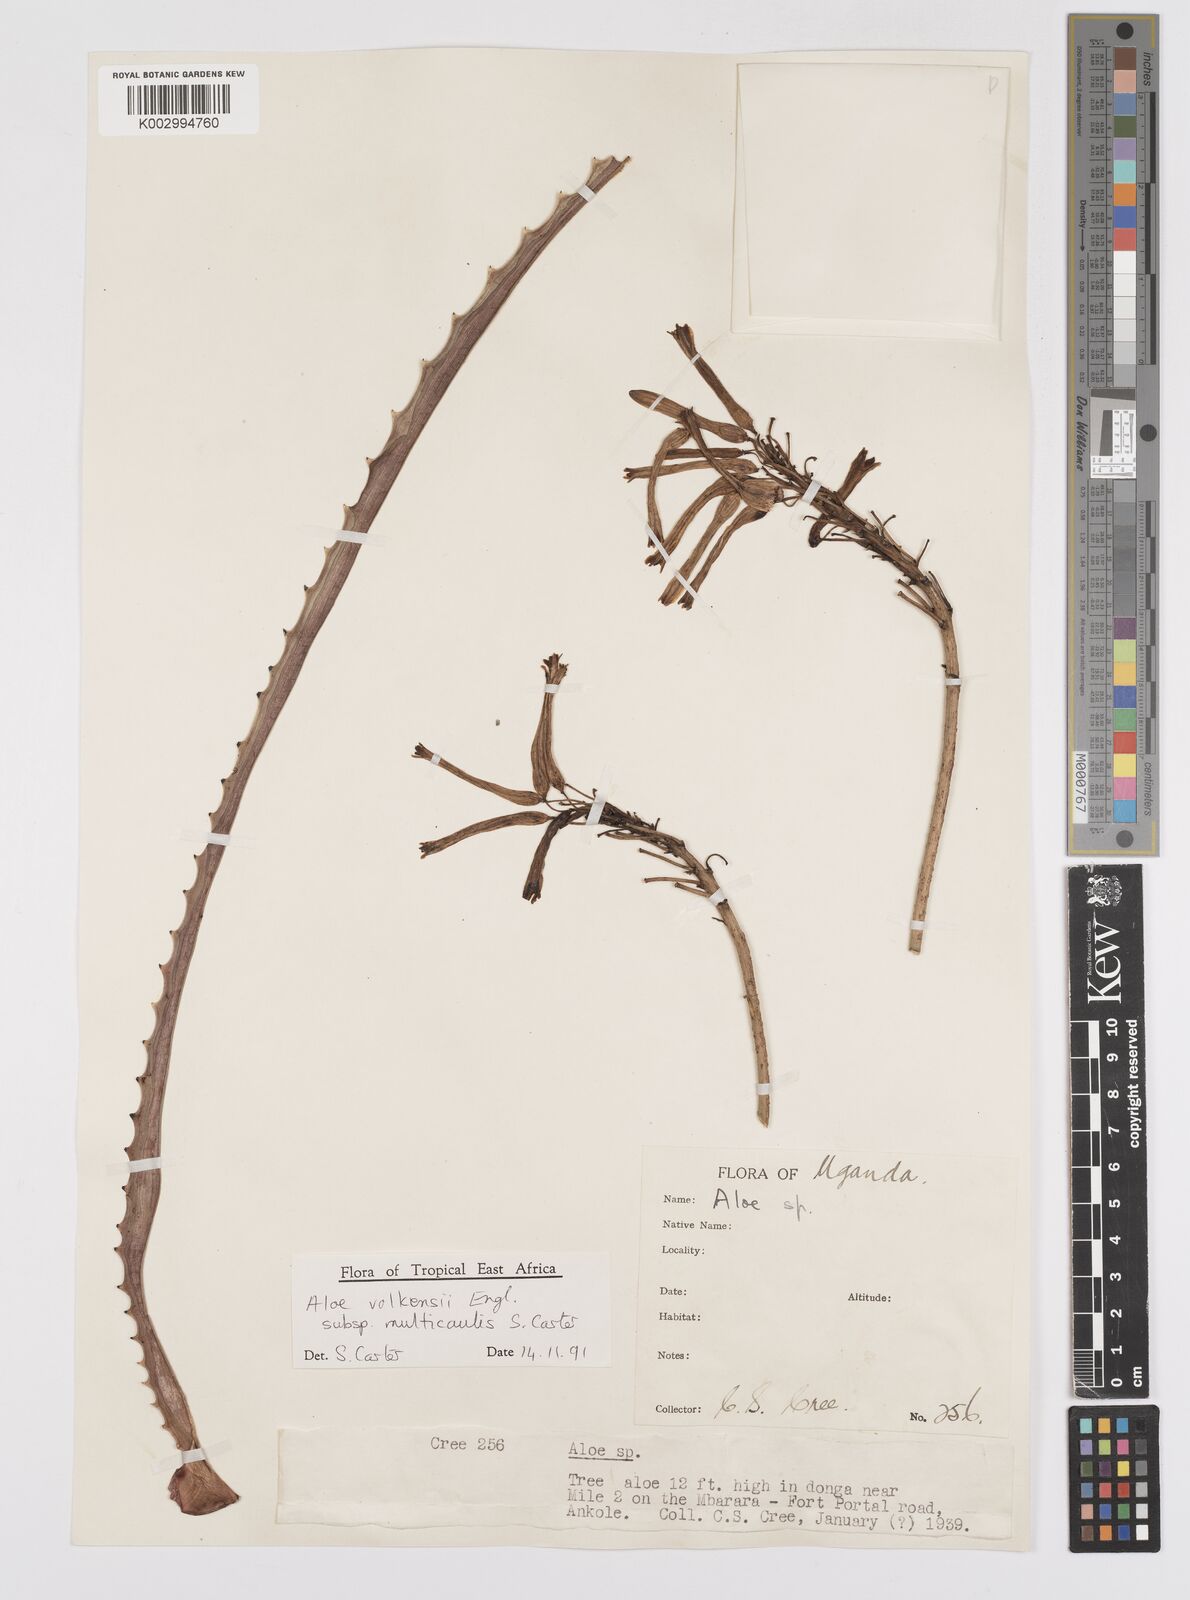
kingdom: Plantae
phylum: Tracheophyta
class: Liliopsida
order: Asparagales
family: Asphodelaceae
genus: Aloe
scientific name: Aloe volkensii
